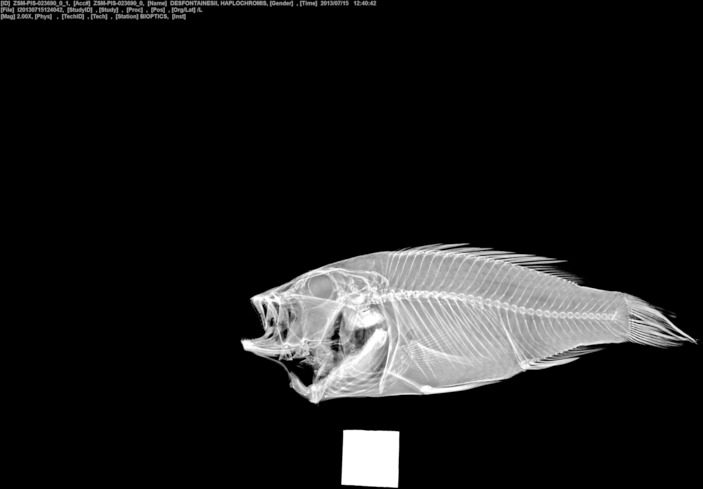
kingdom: Animalia
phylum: Chordata
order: Perciformes
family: Cichlidae
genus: Astatotilapia
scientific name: Astatotilapia desfontainii
